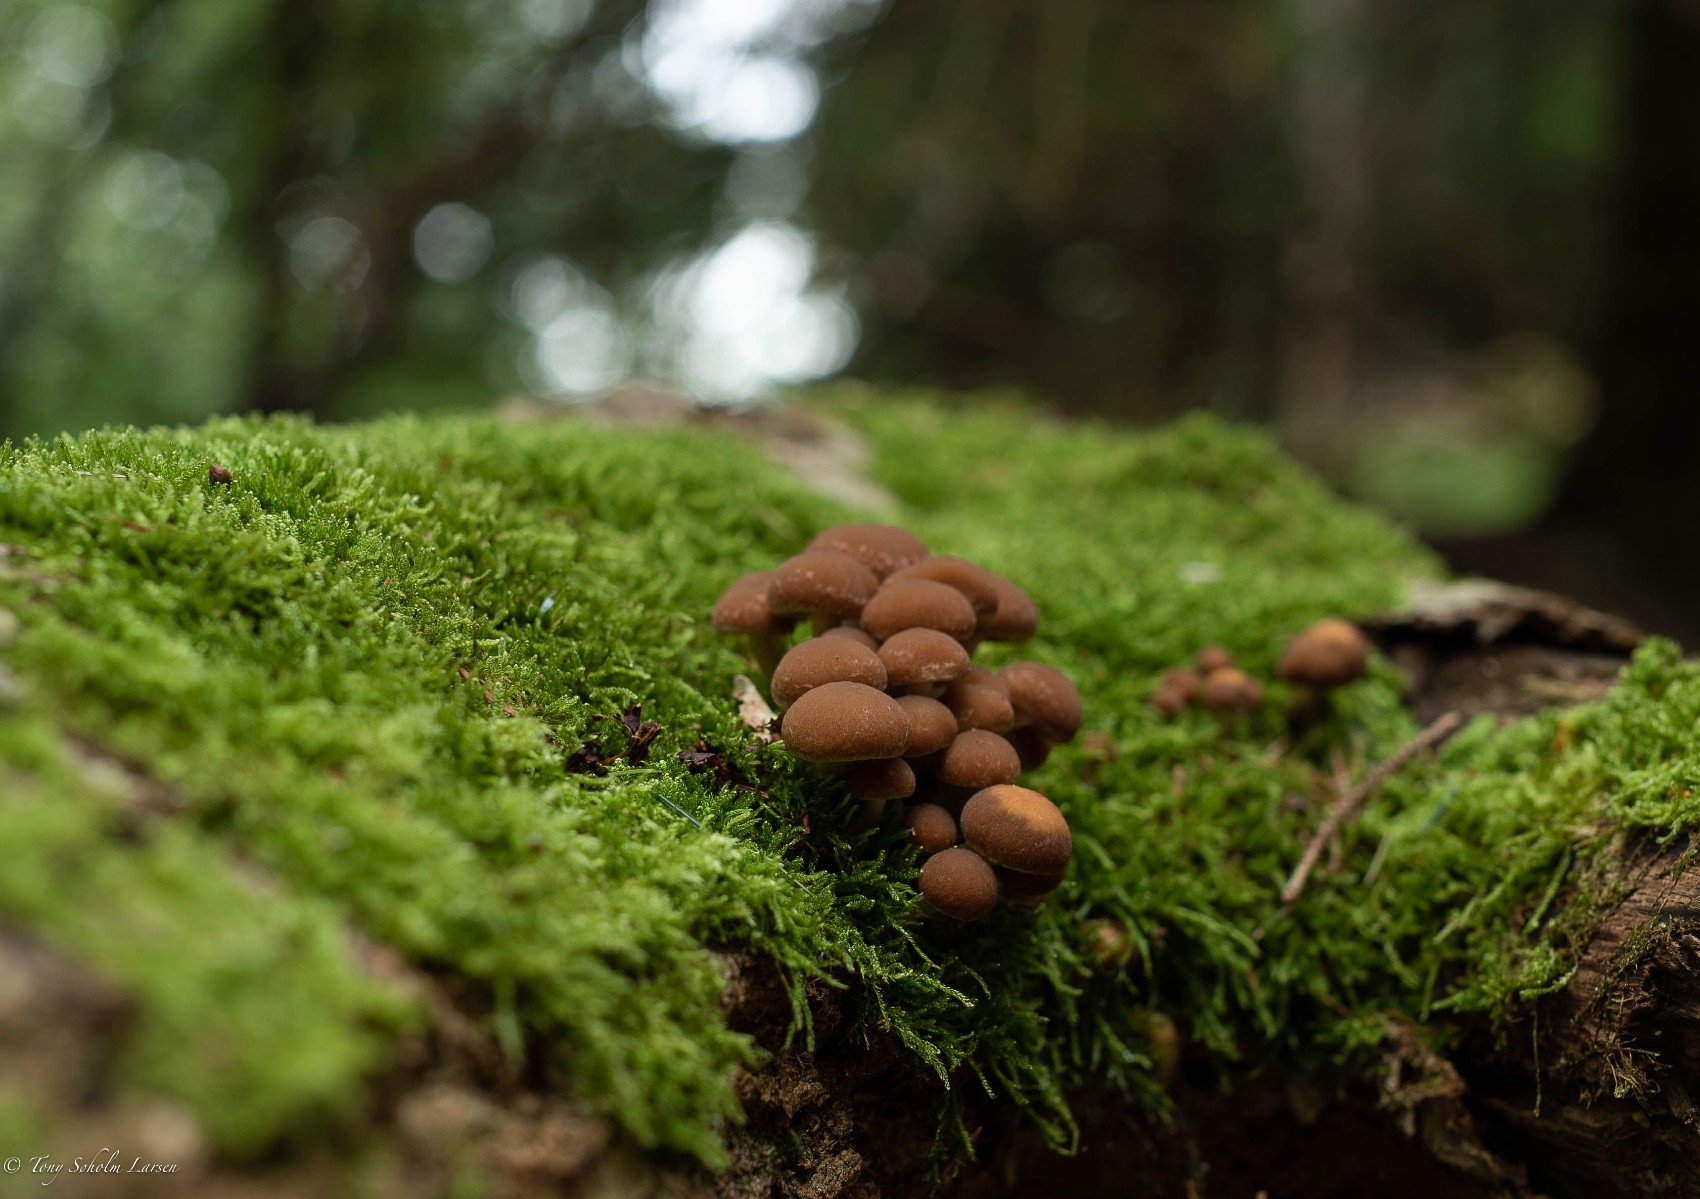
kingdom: Fungi
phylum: Basidiomycota
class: Agaricomycetes
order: Agaricales
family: Psathyrellaceae
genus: Psathyrella
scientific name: Psathyrella piluliformis
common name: lysstokket mørkhat
